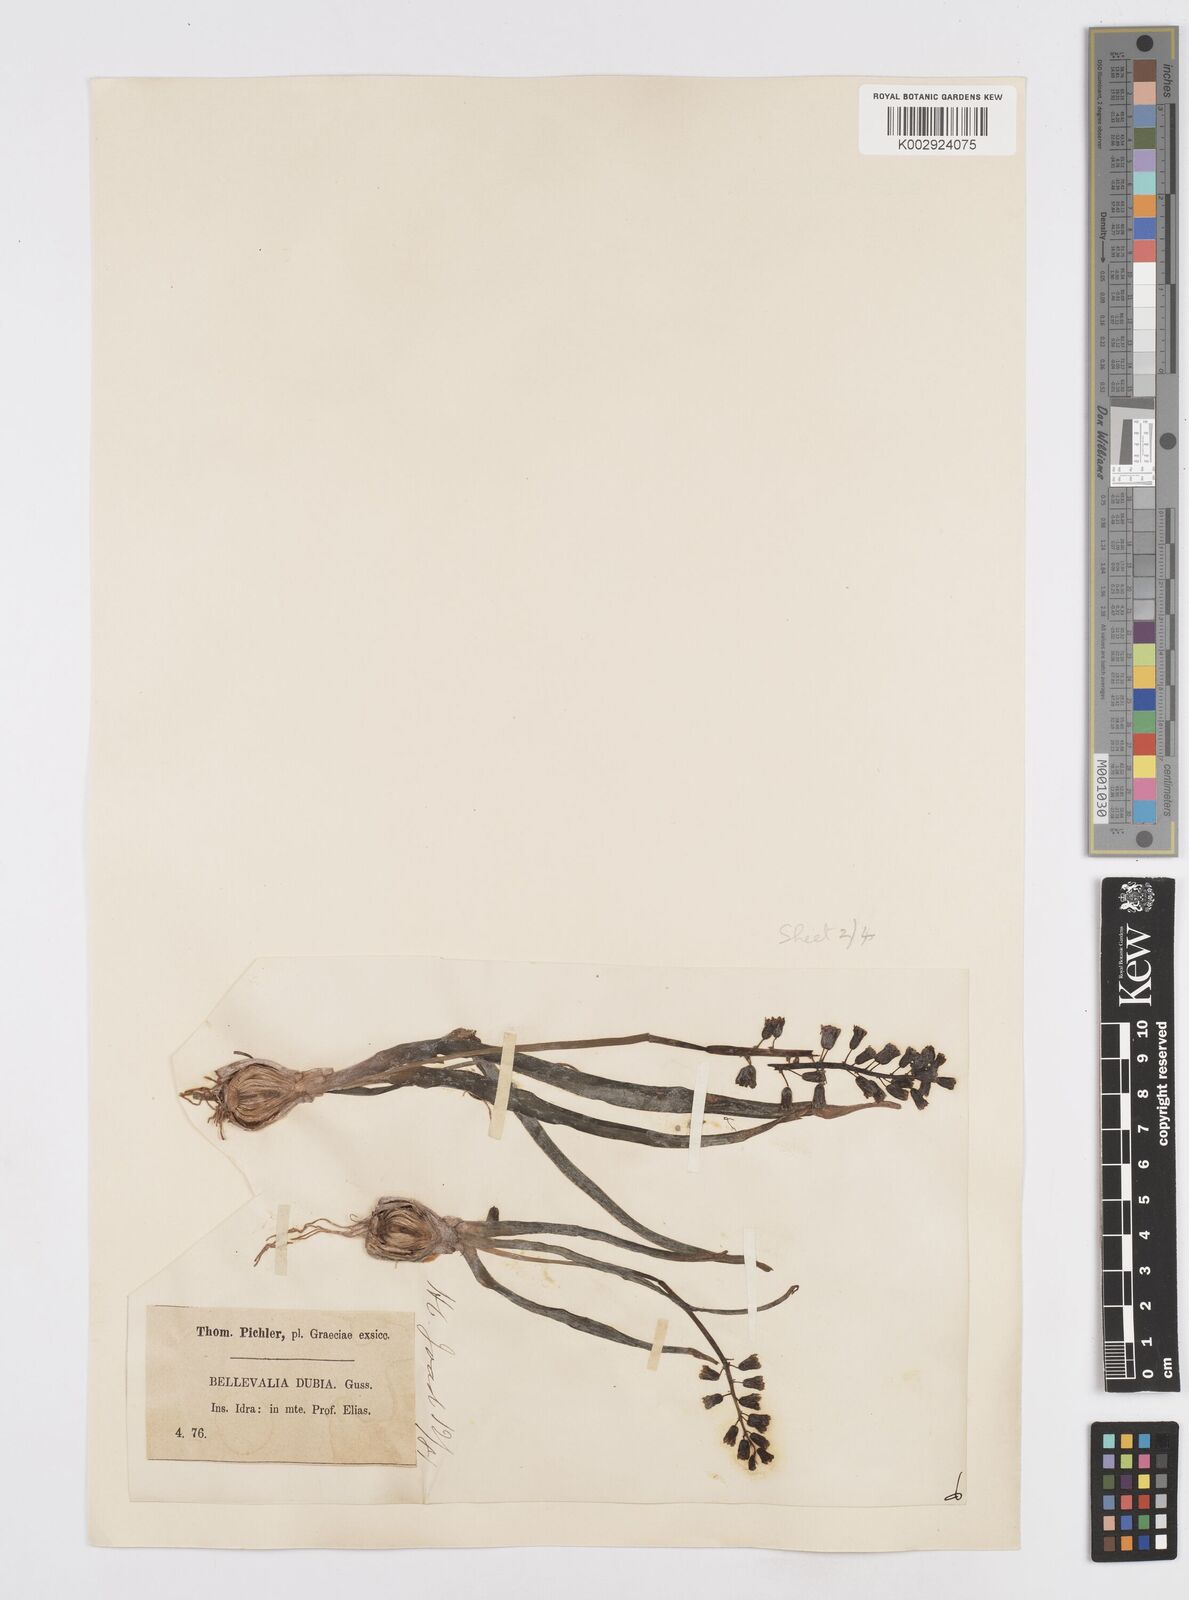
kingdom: Plantae
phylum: Tracheophyta
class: Liliopsida
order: Asparagales
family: Asparagaceae
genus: Bellevalia
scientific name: Bellevalia dubia
